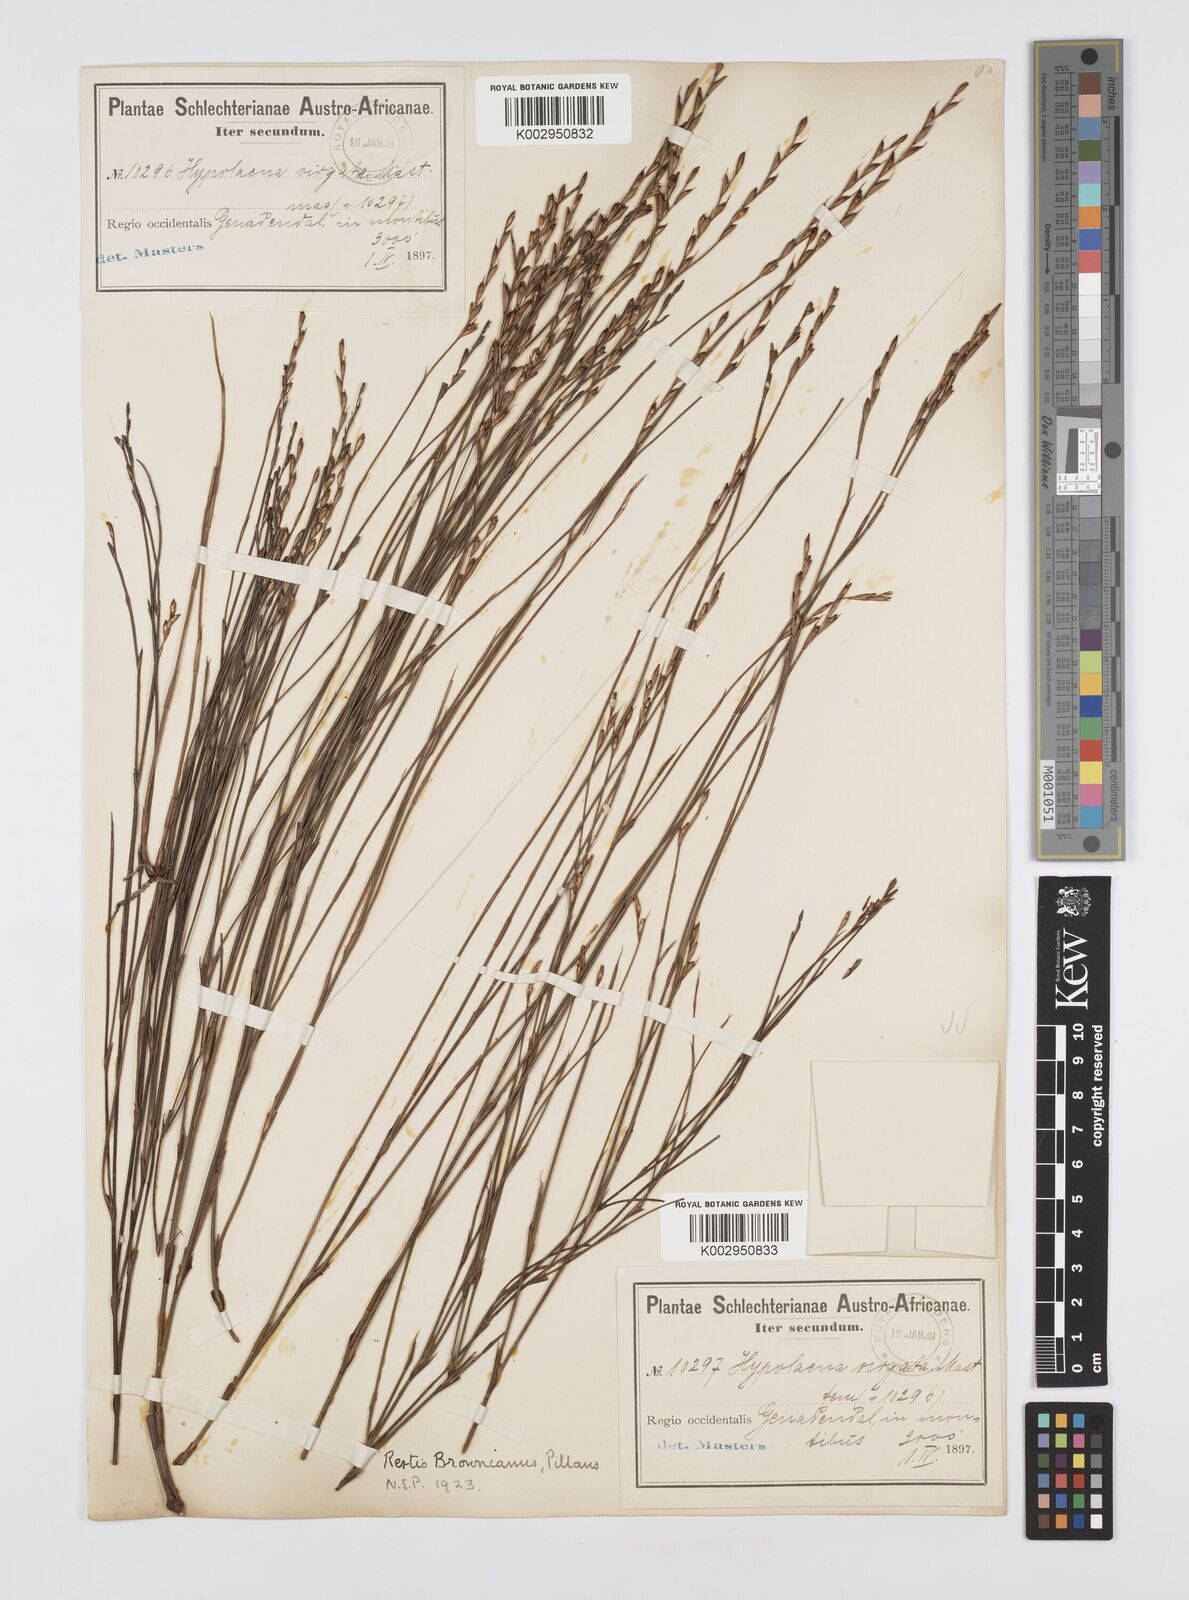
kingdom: Plantae
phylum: Tracheophyta
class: Liliopsida
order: Poales
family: Restionaceae
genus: Restio
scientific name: Restio debilis
